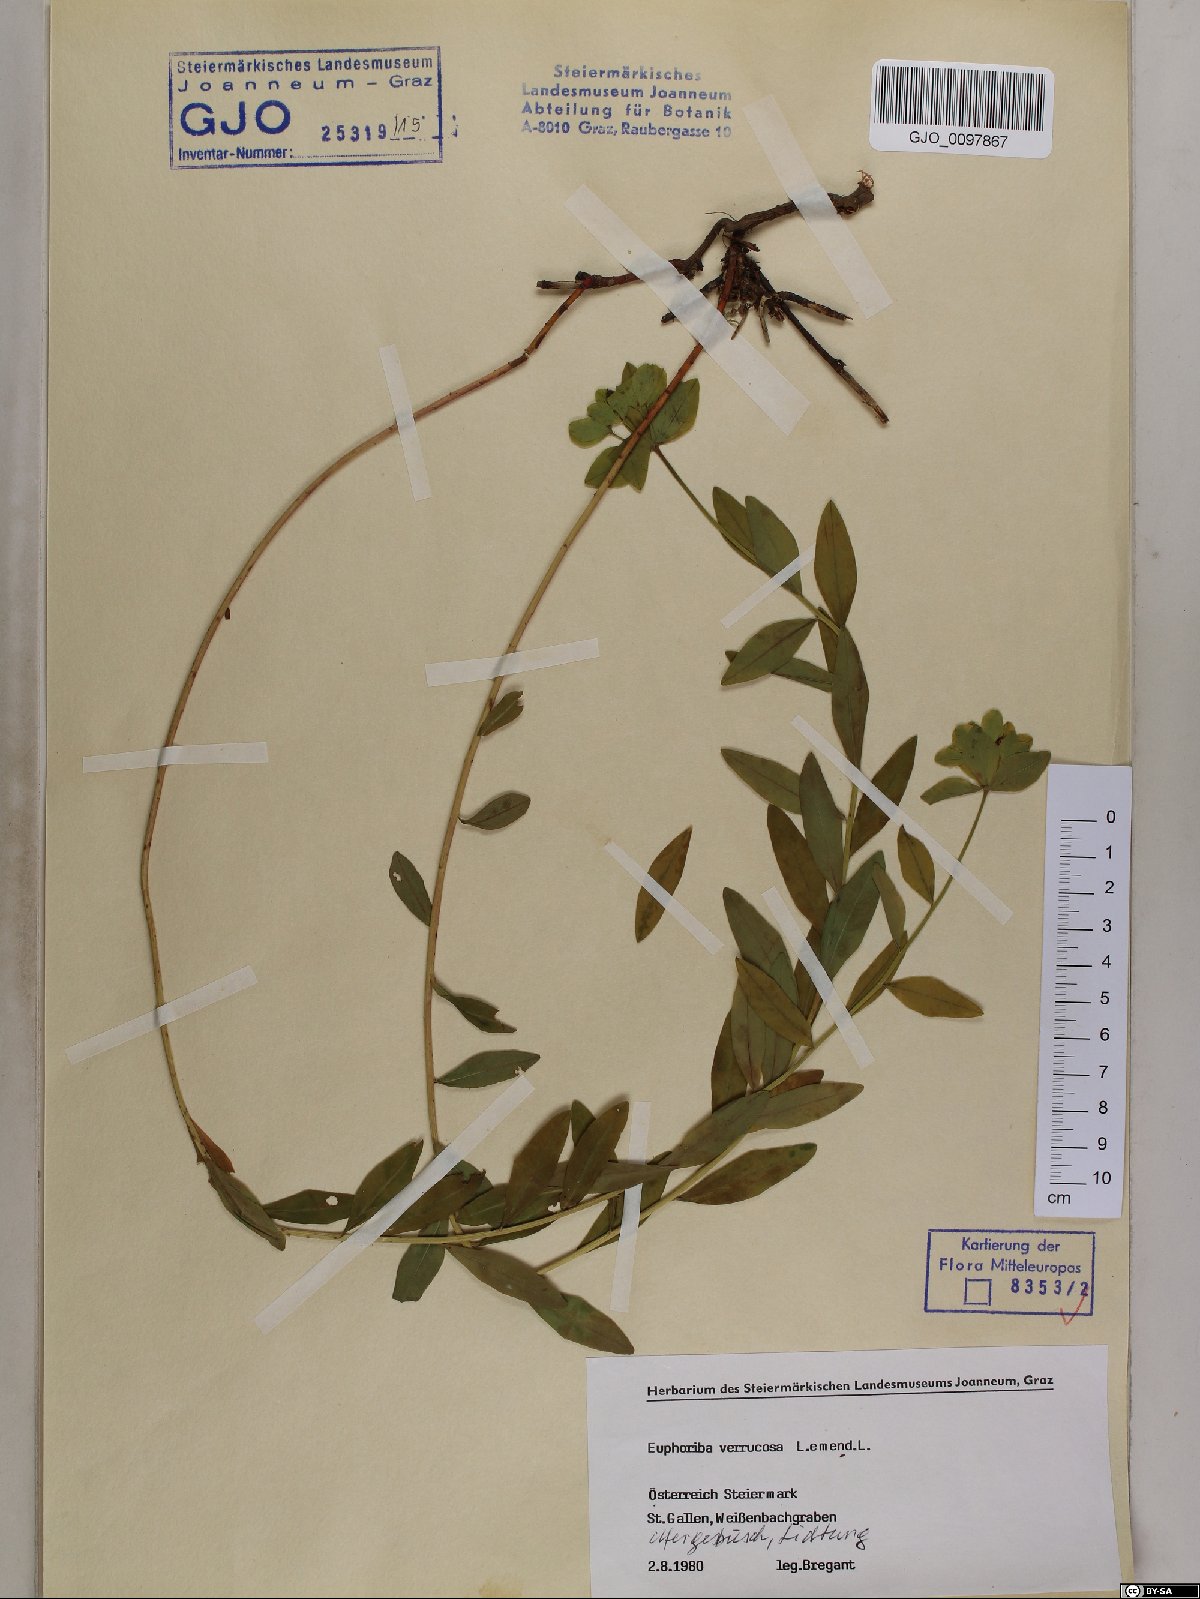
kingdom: Plantae
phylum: Tracheophyta
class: Magnoliopsida
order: Malpighiales
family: Euphorbiaceae
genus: Euphorbia
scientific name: Euphorbia verrucosa
